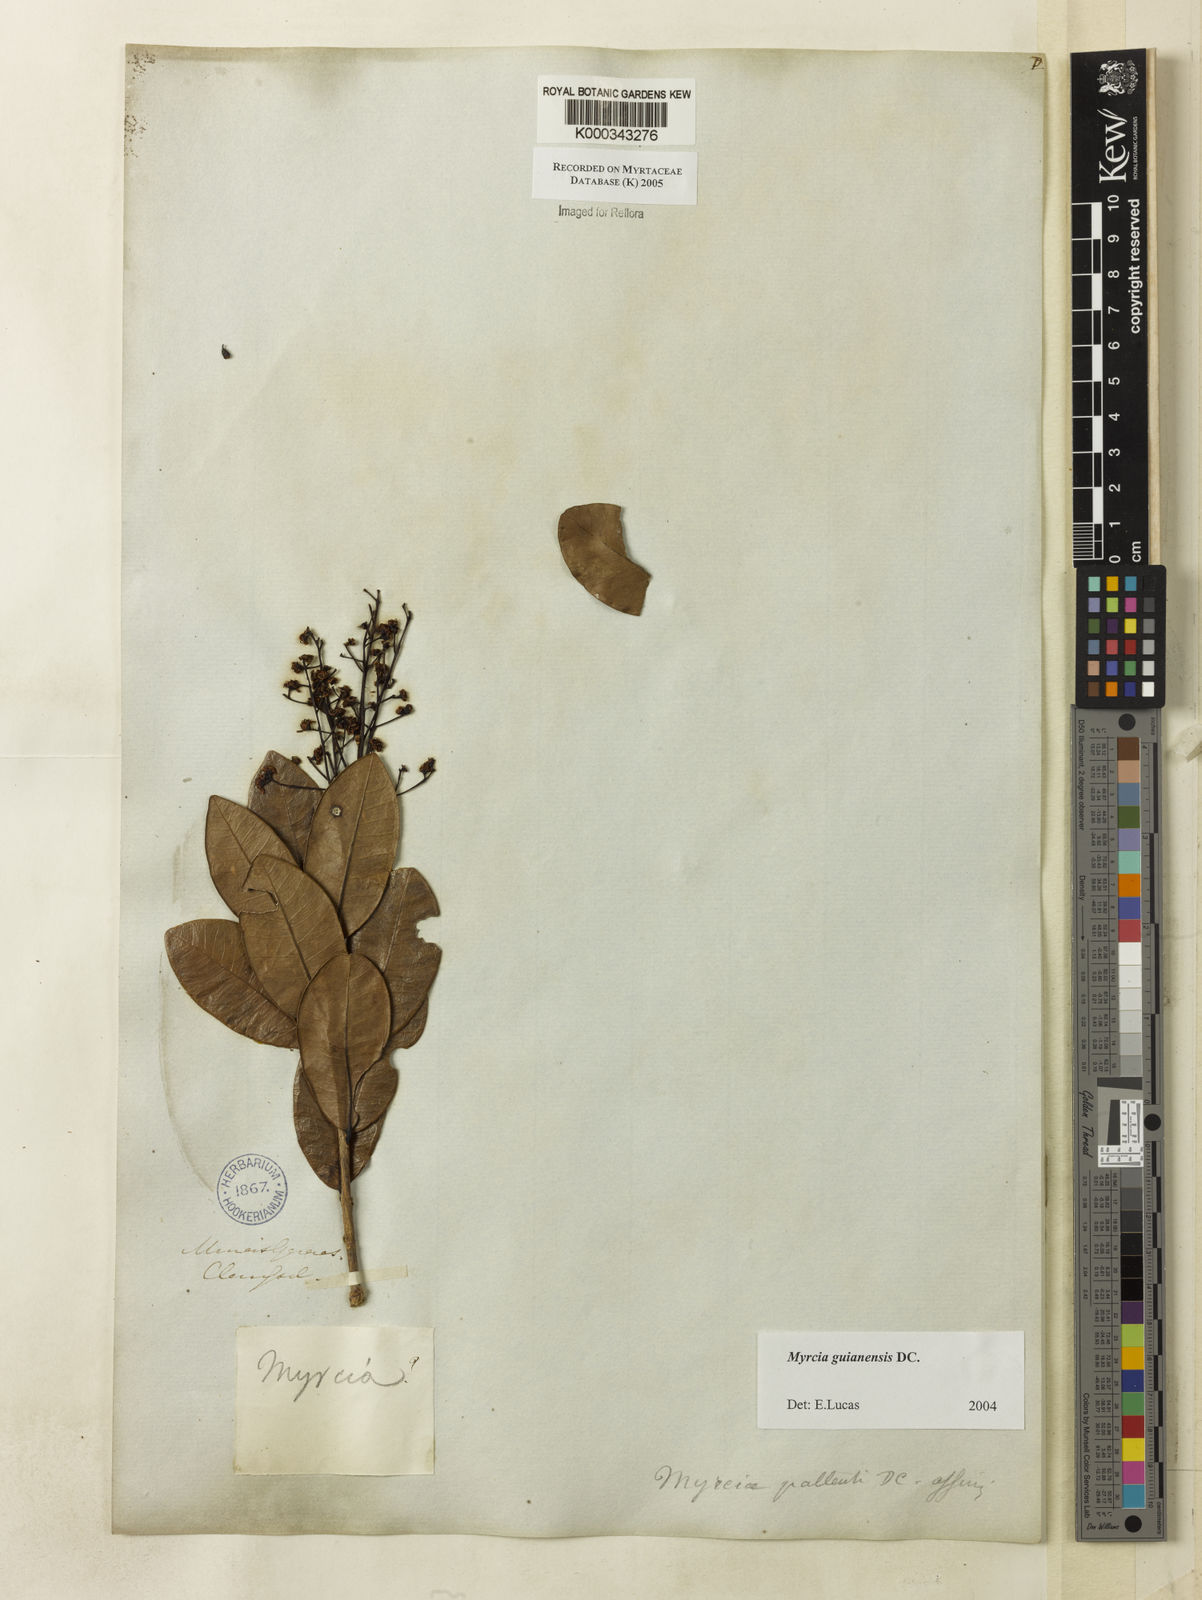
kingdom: Plantae
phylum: Tracheophyta
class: Magnoliopsida
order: Myrtales
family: Myrtaceae
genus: Myrcia
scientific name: Myrcia guianensis
